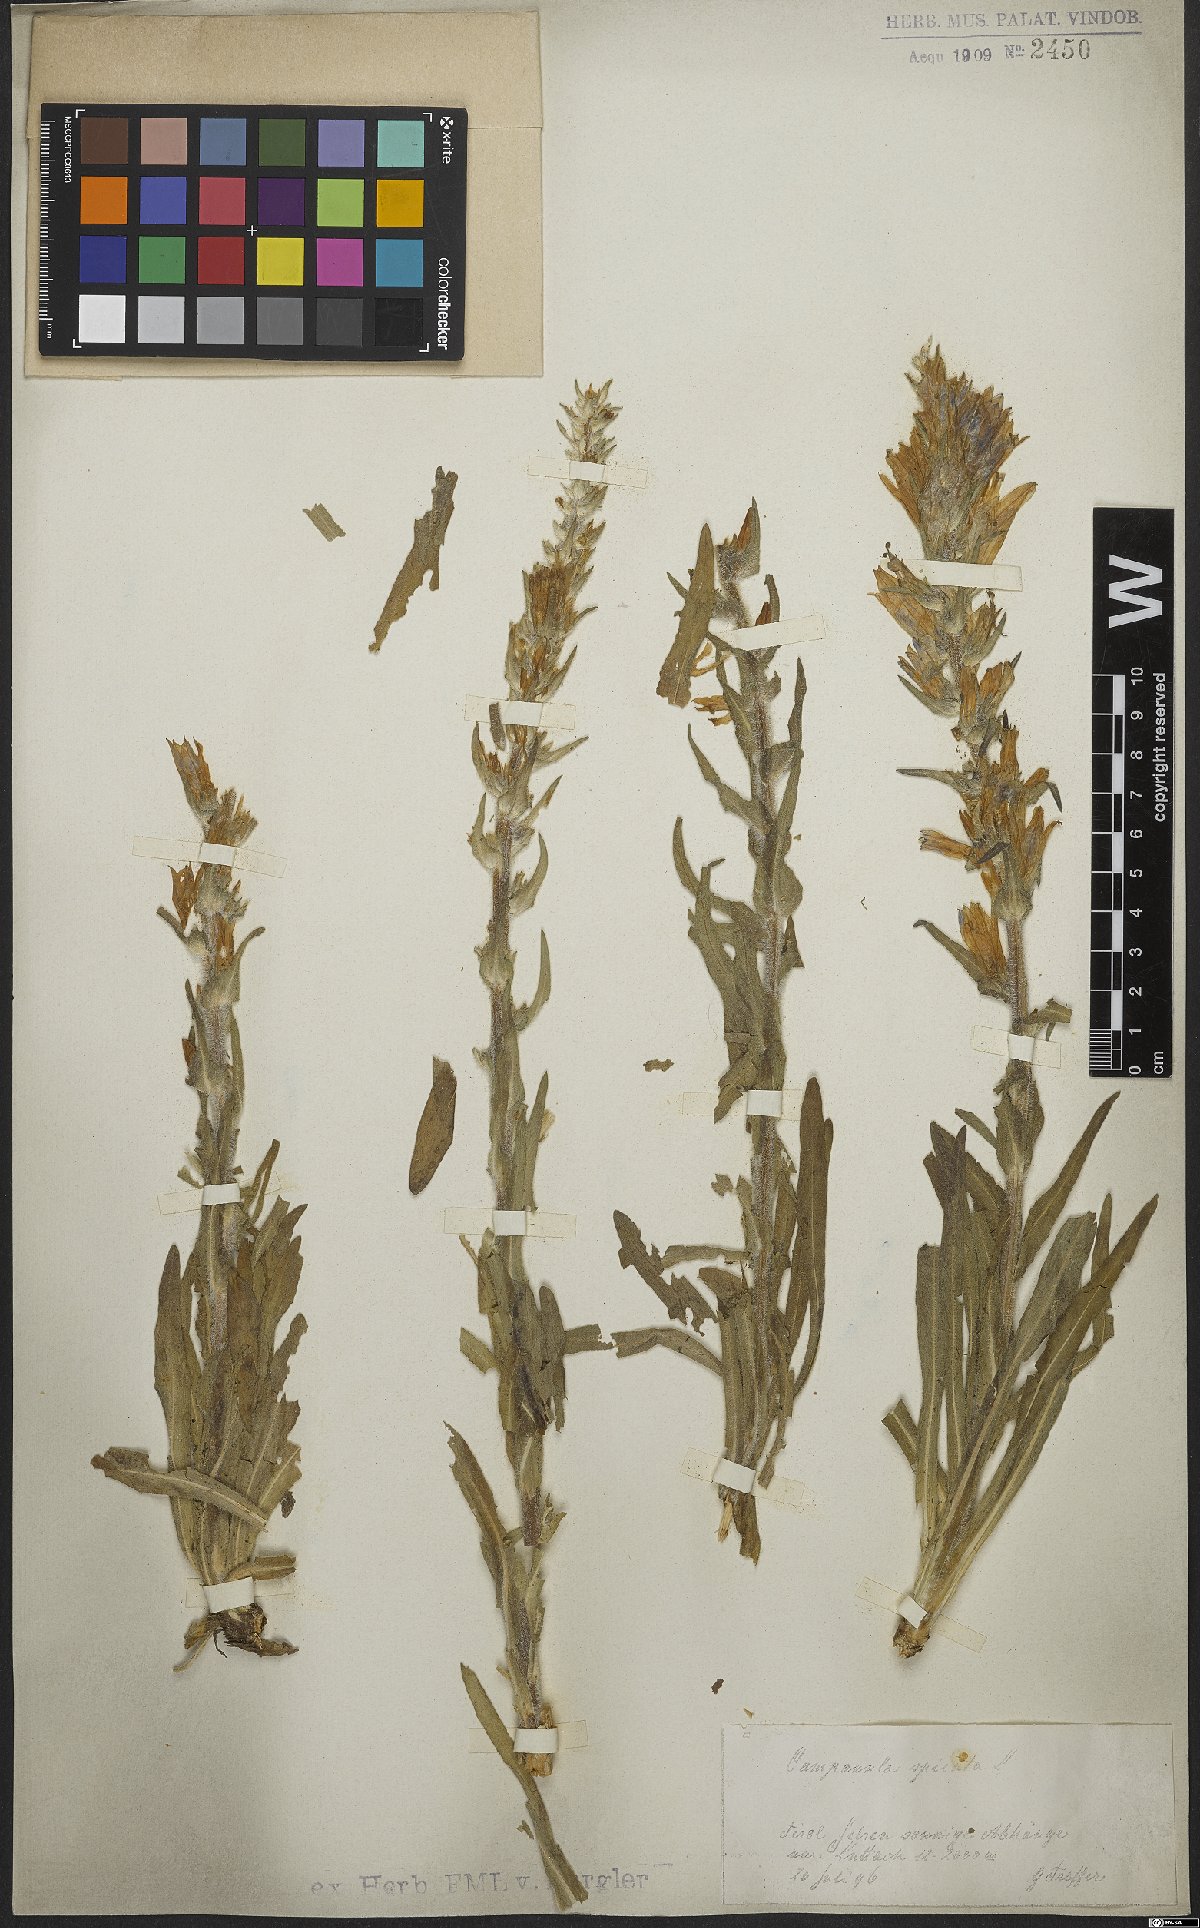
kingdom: Plantae
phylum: Tracheophyta
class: Magnoliopsida
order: Asterales
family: Campanulaceae
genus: Campanula
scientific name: Campanula spicata
